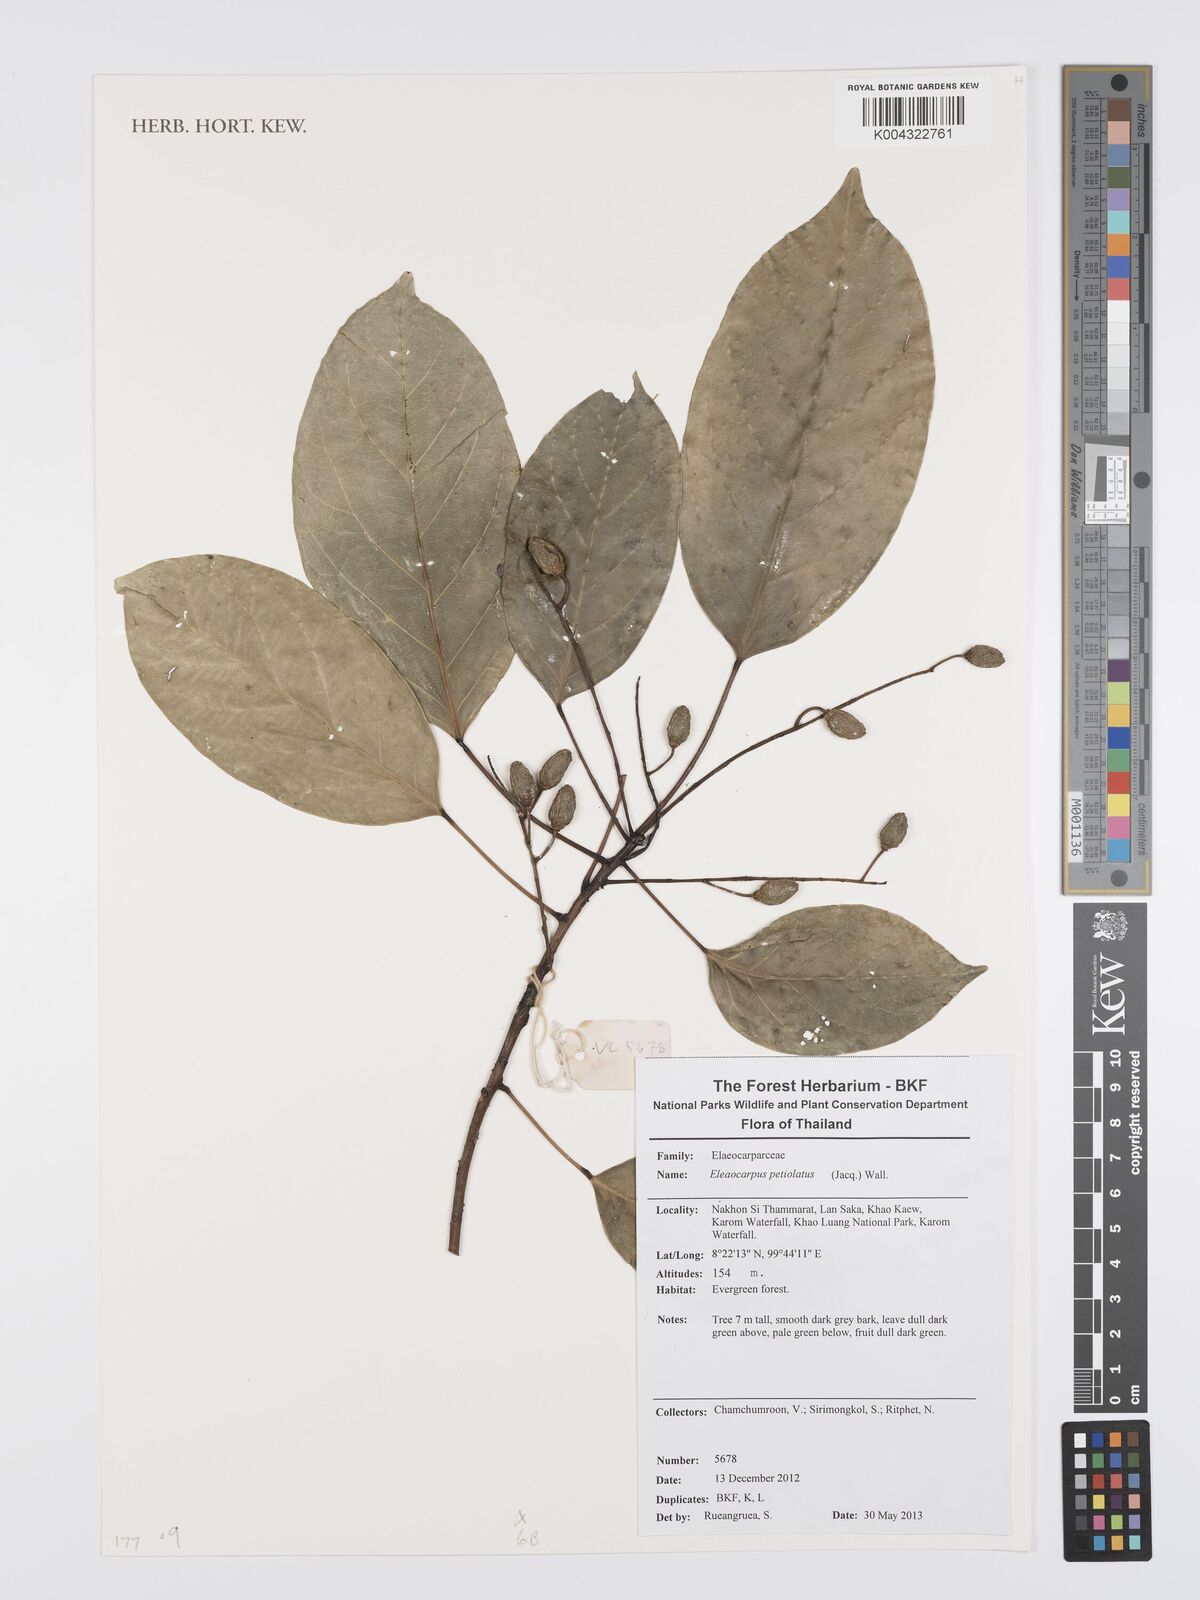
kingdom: Plantae
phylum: Tracheophyta
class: Magnoliopsida
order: Oxalidales
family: Elaeocarpaceae
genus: Elaeocarpus
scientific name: Elaeocarpus petiolatus
